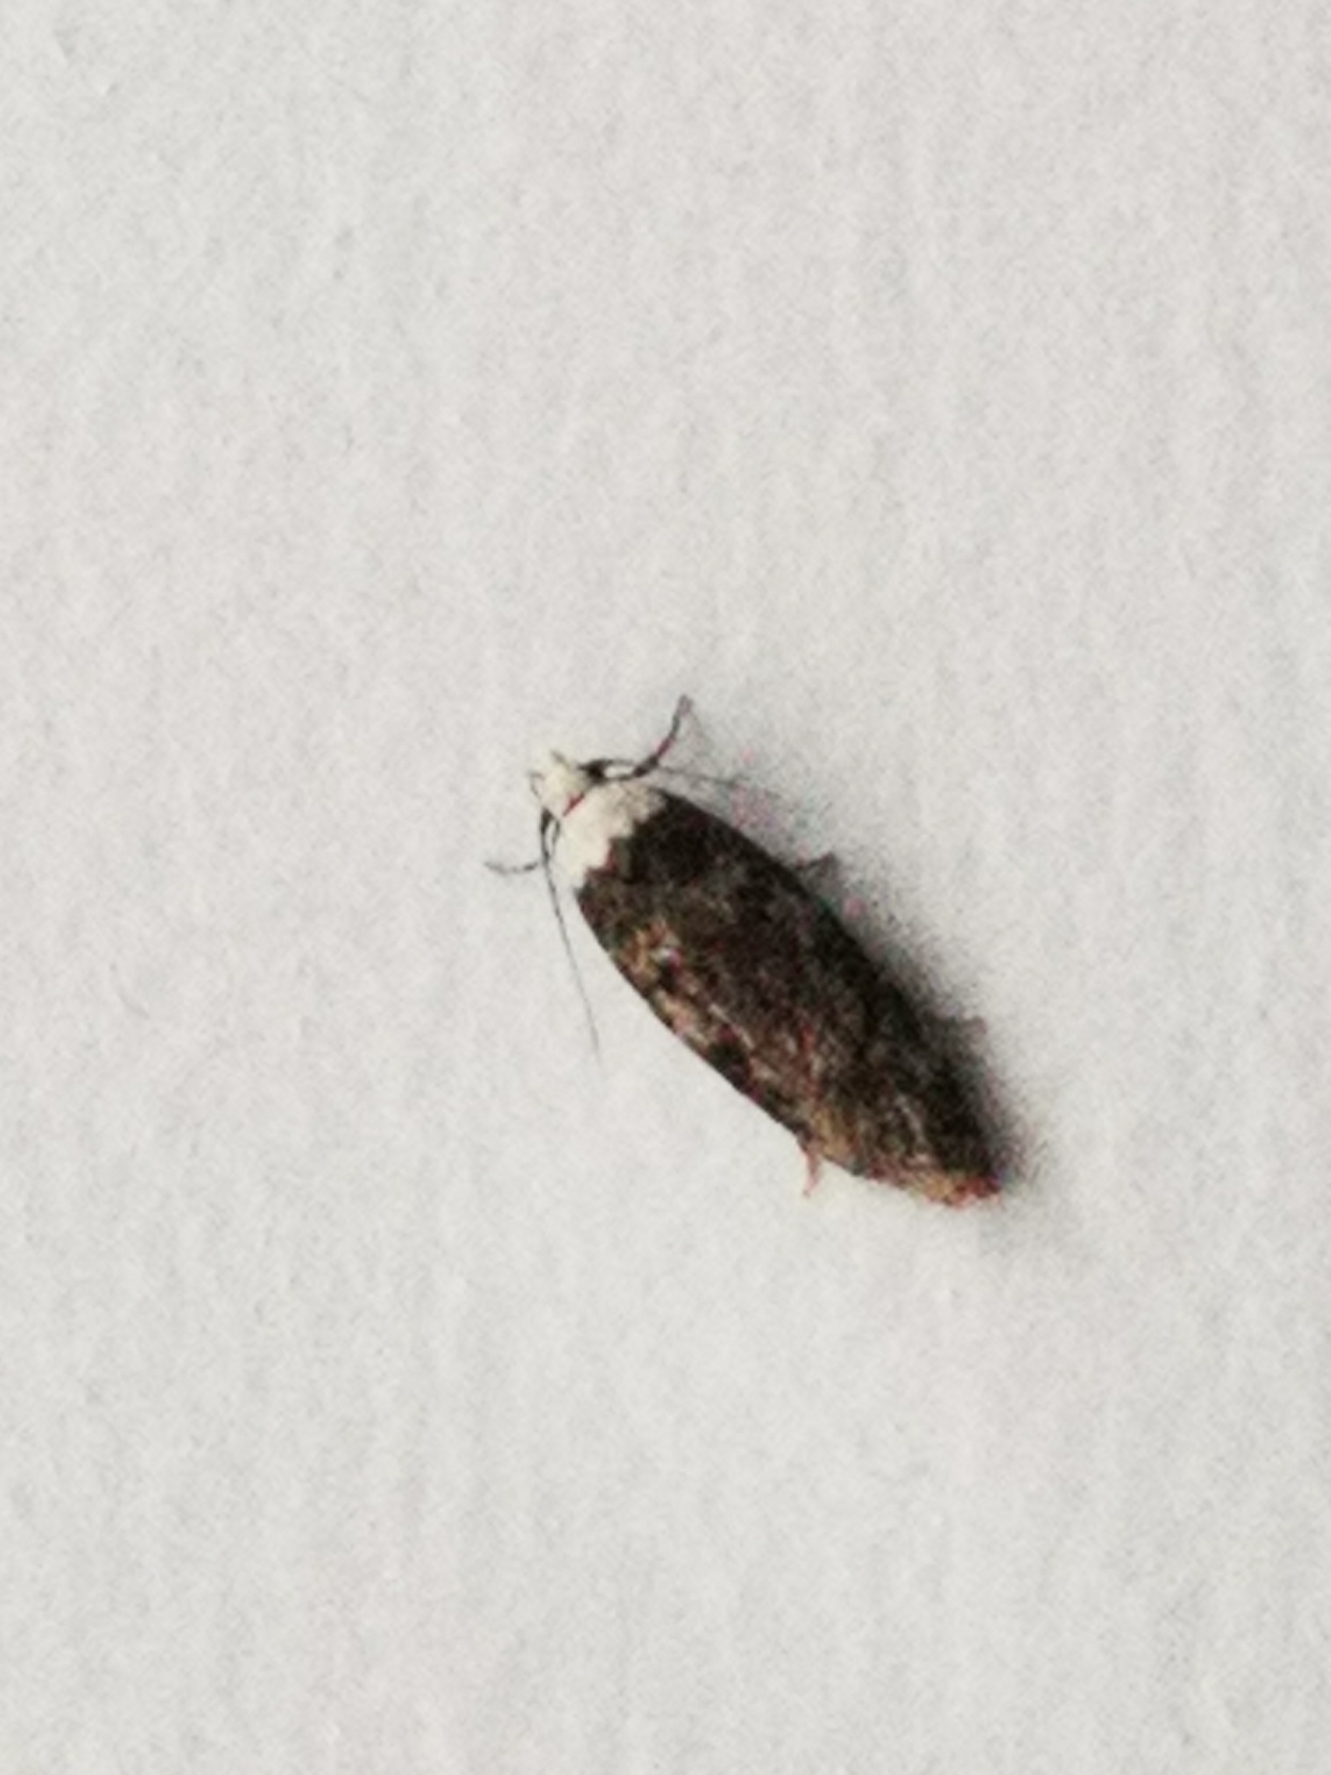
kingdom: Animalia
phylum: Arthropoda
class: Insecta
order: Lepidoptera
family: Oecophoridae
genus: Endrosis
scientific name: Endrosis sarcitrella
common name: Klistermøl
